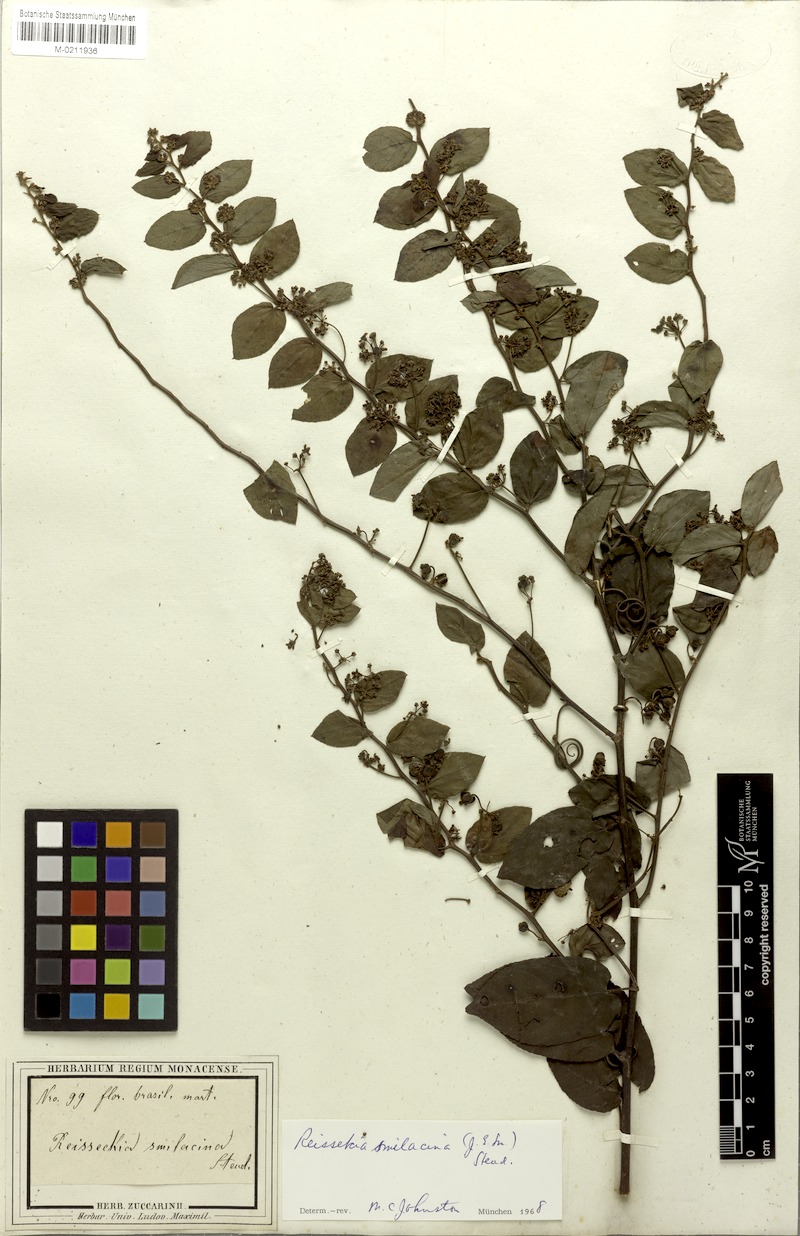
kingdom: Plantae
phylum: Tracheophyta
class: Magnoliopsida
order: Rosales
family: Rhamnaceae
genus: Reissekia
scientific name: Reissekia smilacina
